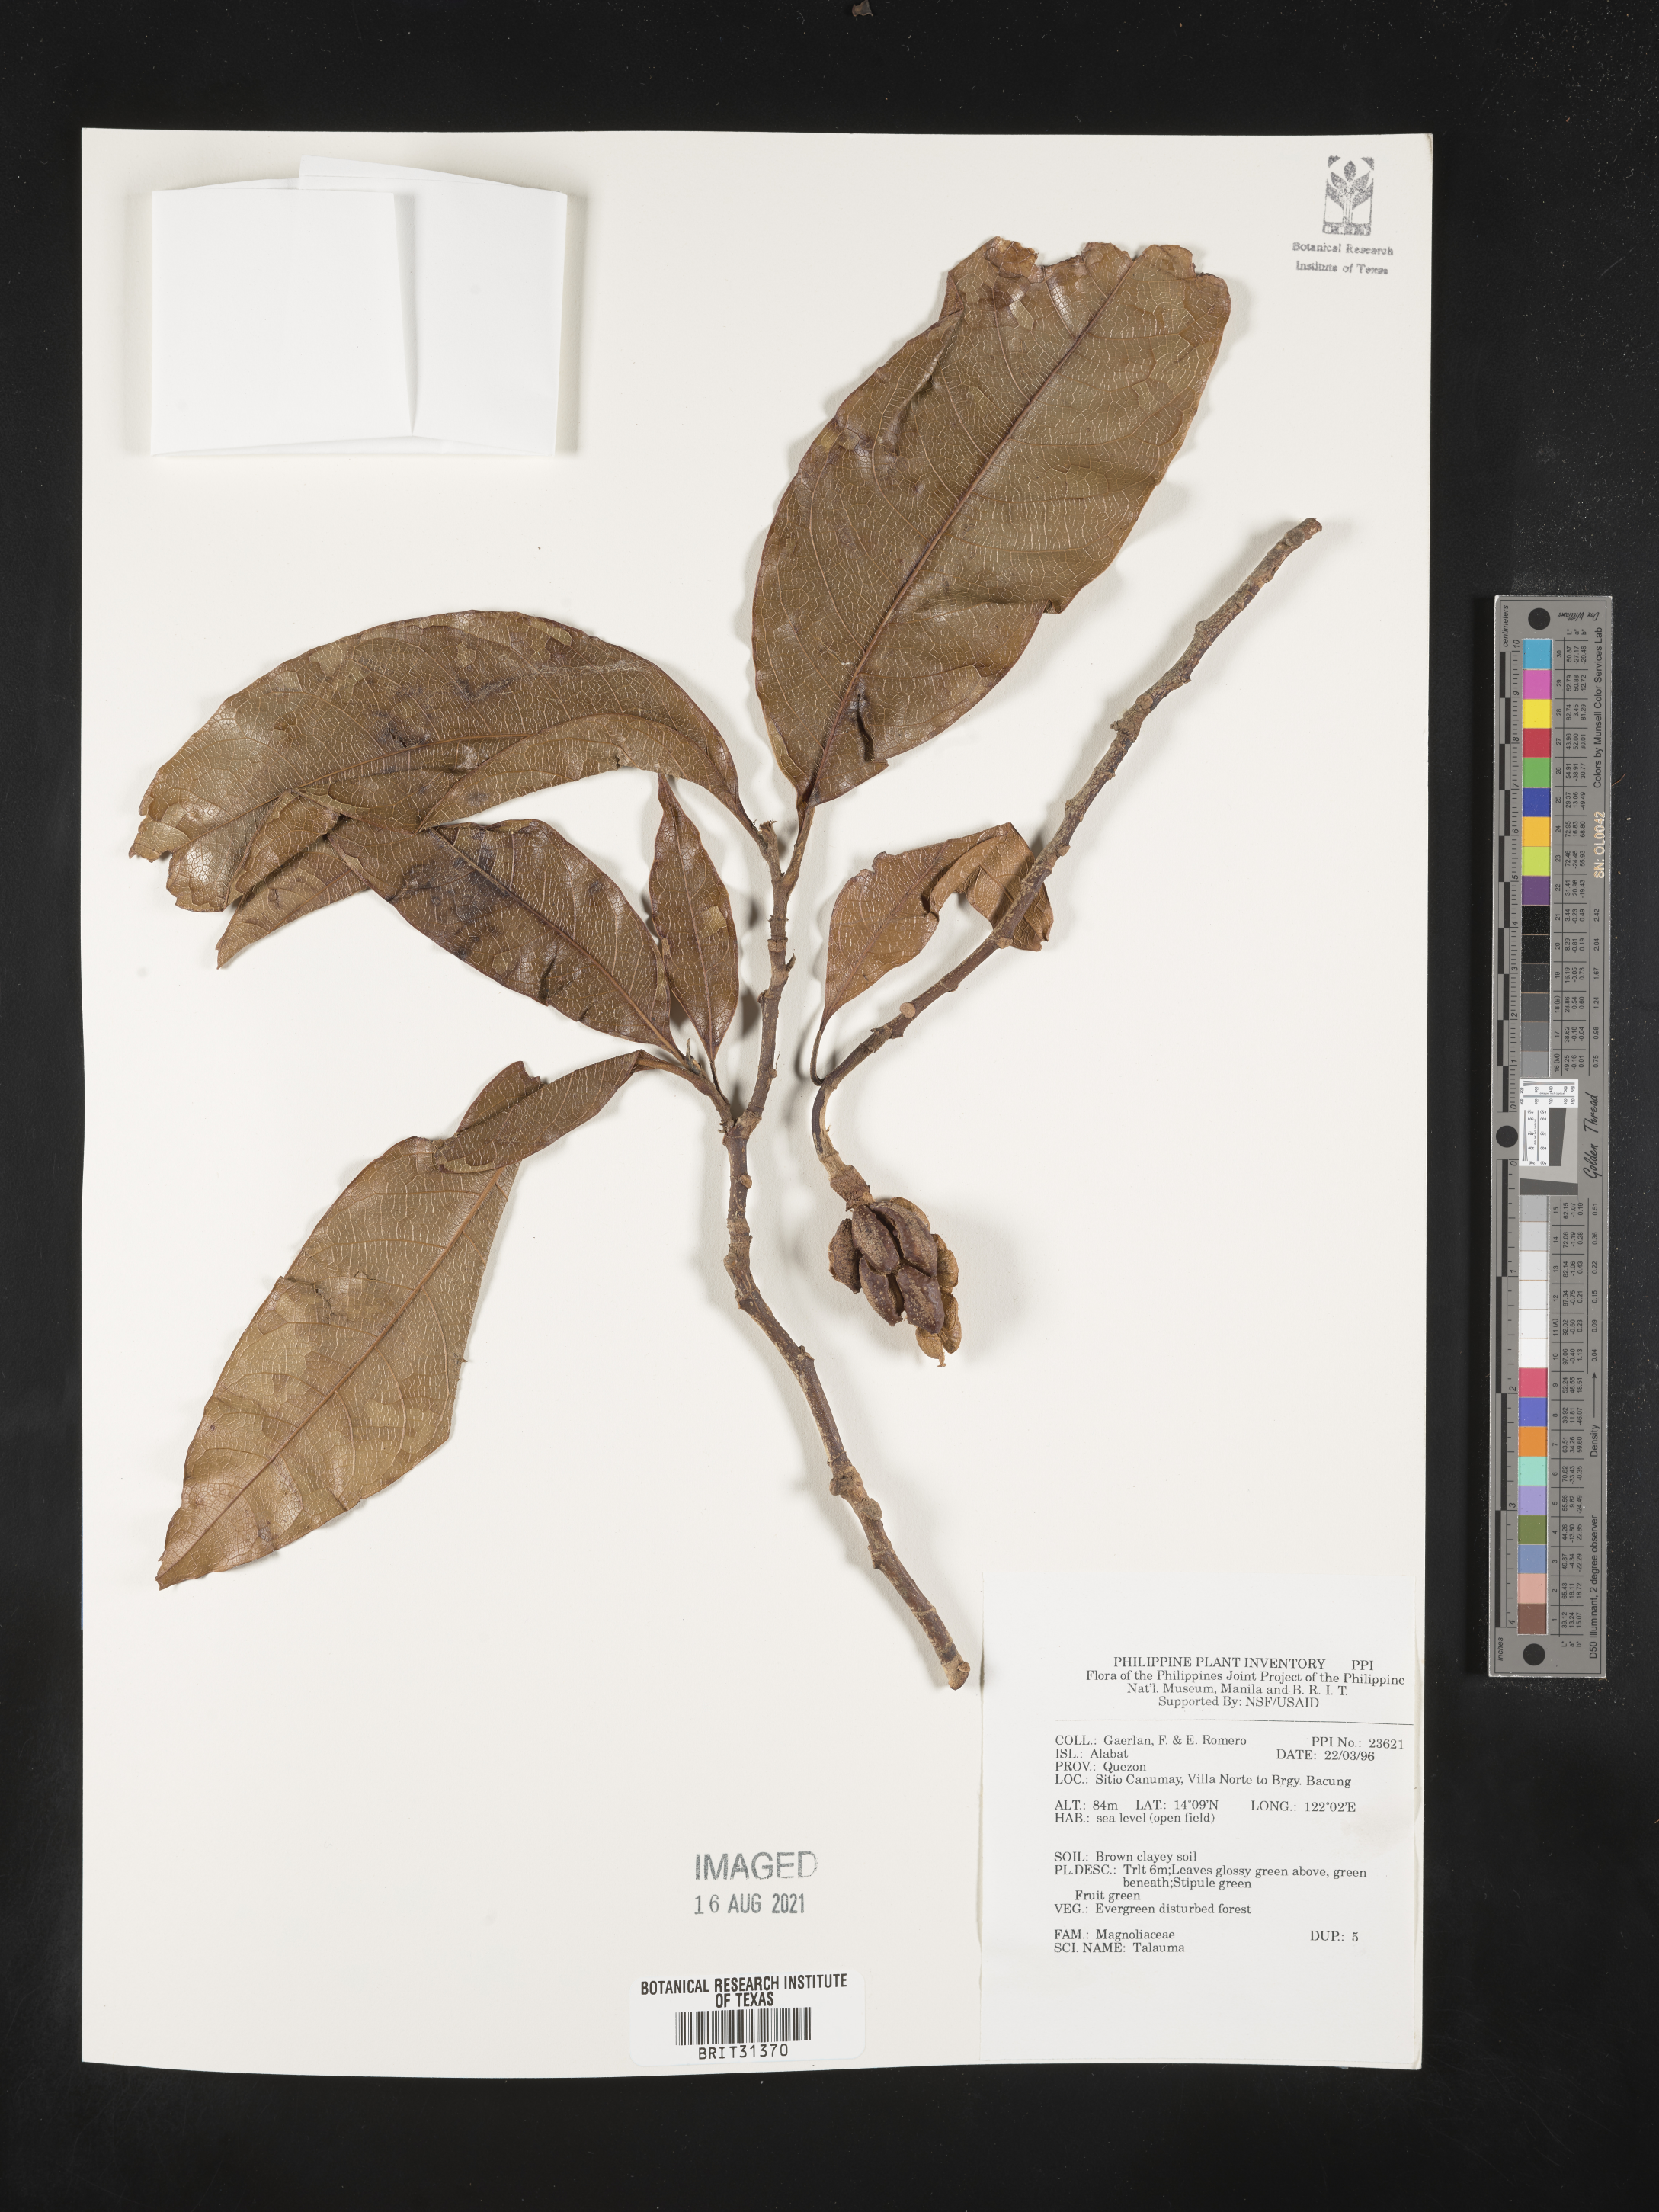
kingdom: Plantae
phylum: Tracheophyta
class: Magnoliopsida
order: Magnoliales
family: Magnoliaceae
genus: Magnolia
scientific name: Magnolia Talauma spec
